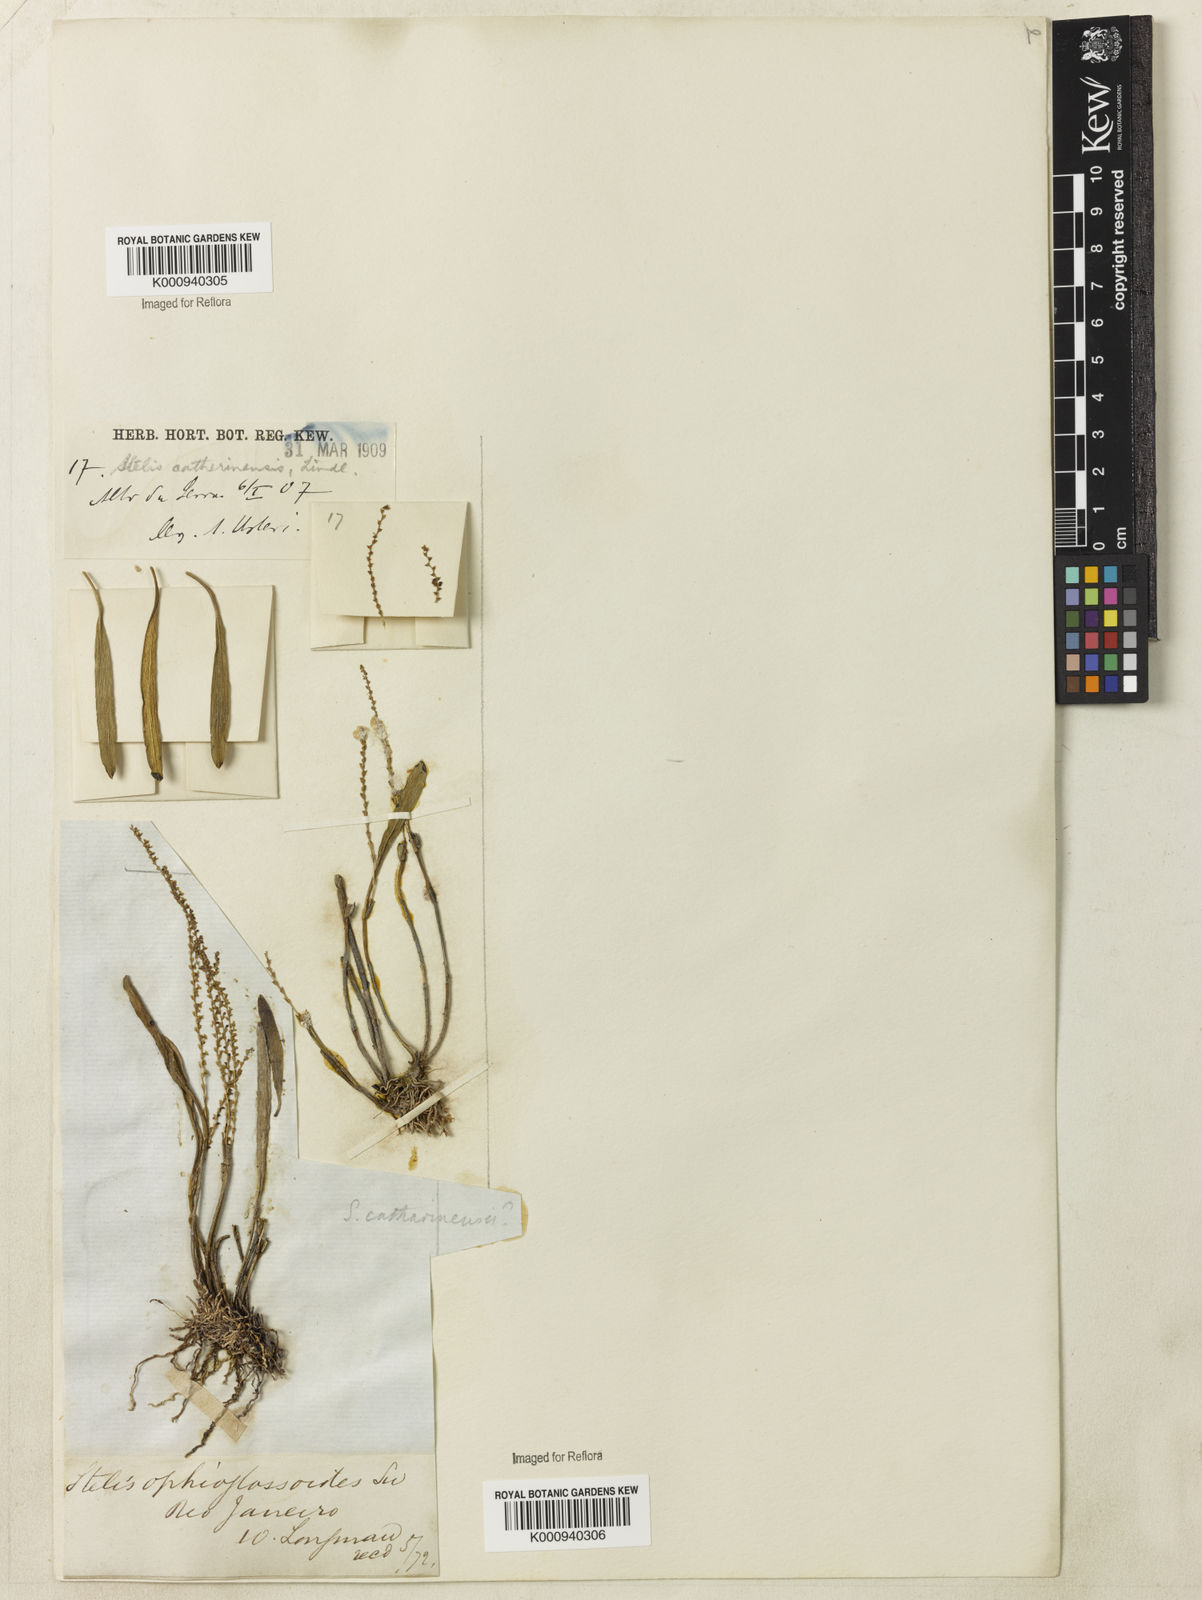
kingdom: Plantae
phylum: Tracheophyta
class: Liliopsida
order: Asparagales
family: Orchidaceae
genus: Stelis
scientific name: Stelis aprica
